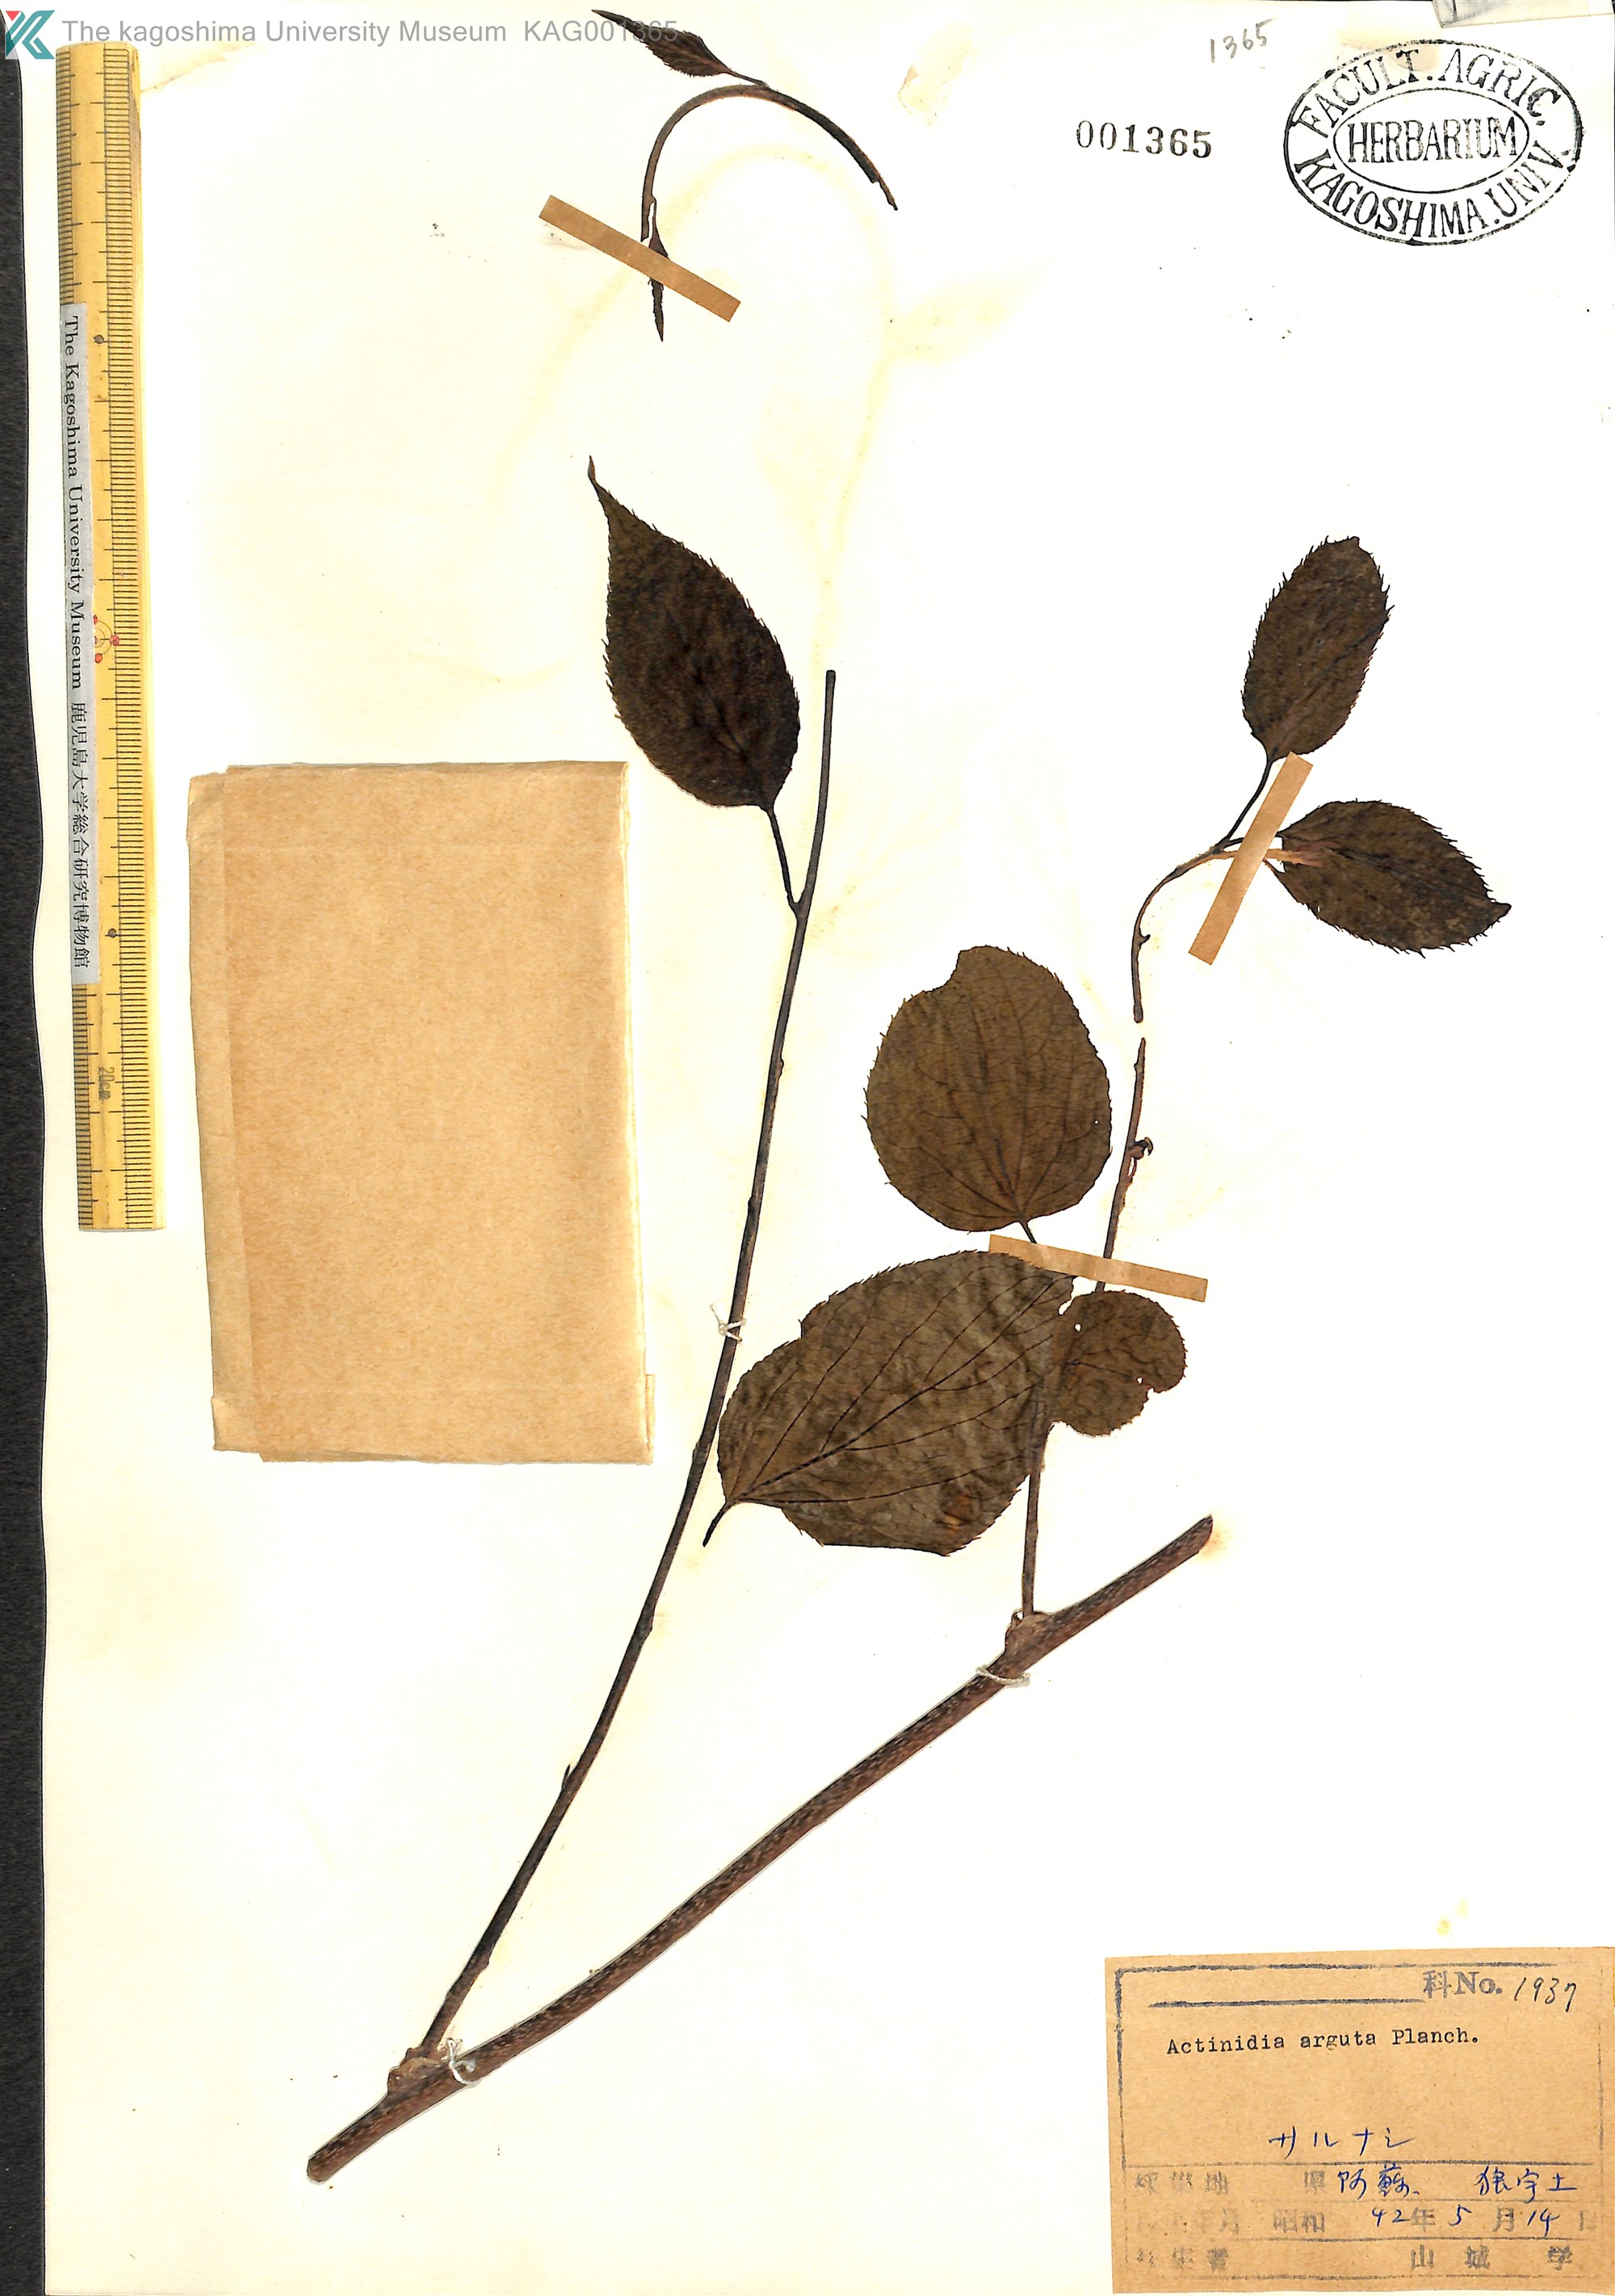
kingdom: Plantae
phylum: Tracheophyta
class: Magnoliopsida
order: Ericales
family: Actinidiaceae
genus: Actinidia
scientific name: Actinidia arguta
